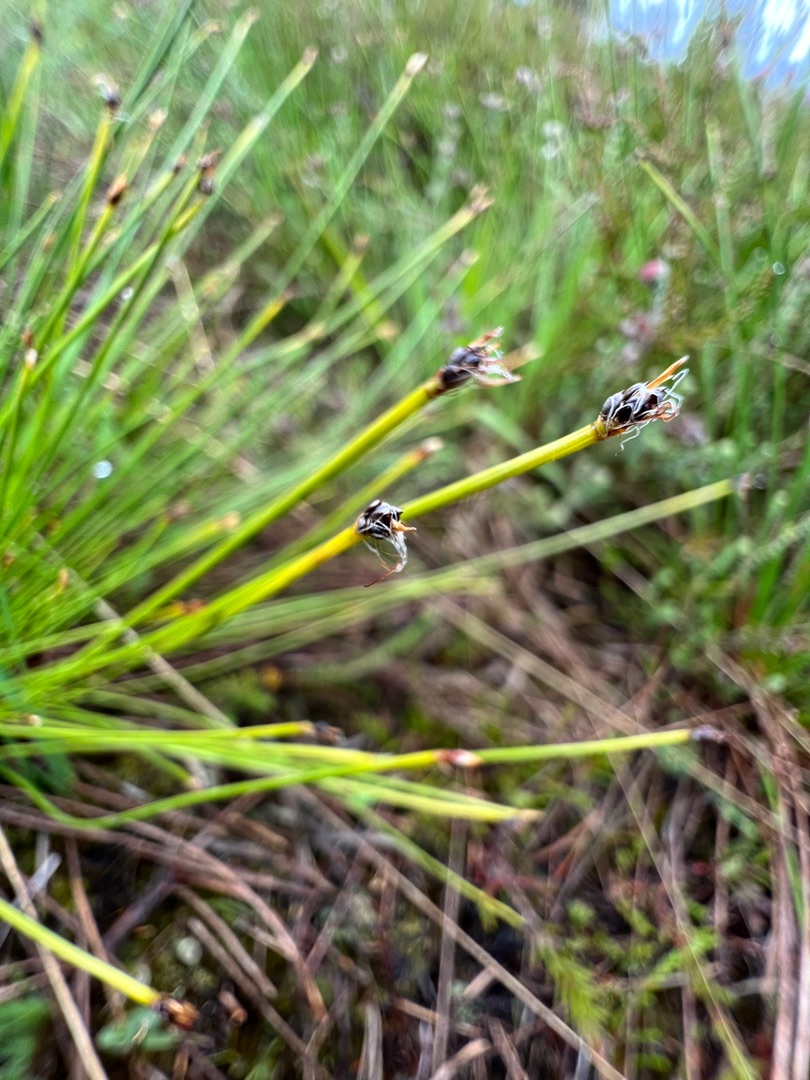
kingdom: Plantae
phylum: Tracheophyta
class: Liliopsida
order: Poales
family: Cyperaceae
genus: Trichophorum
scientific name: Trichophorum cespitosum
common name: Vestlig tuekogleaks
